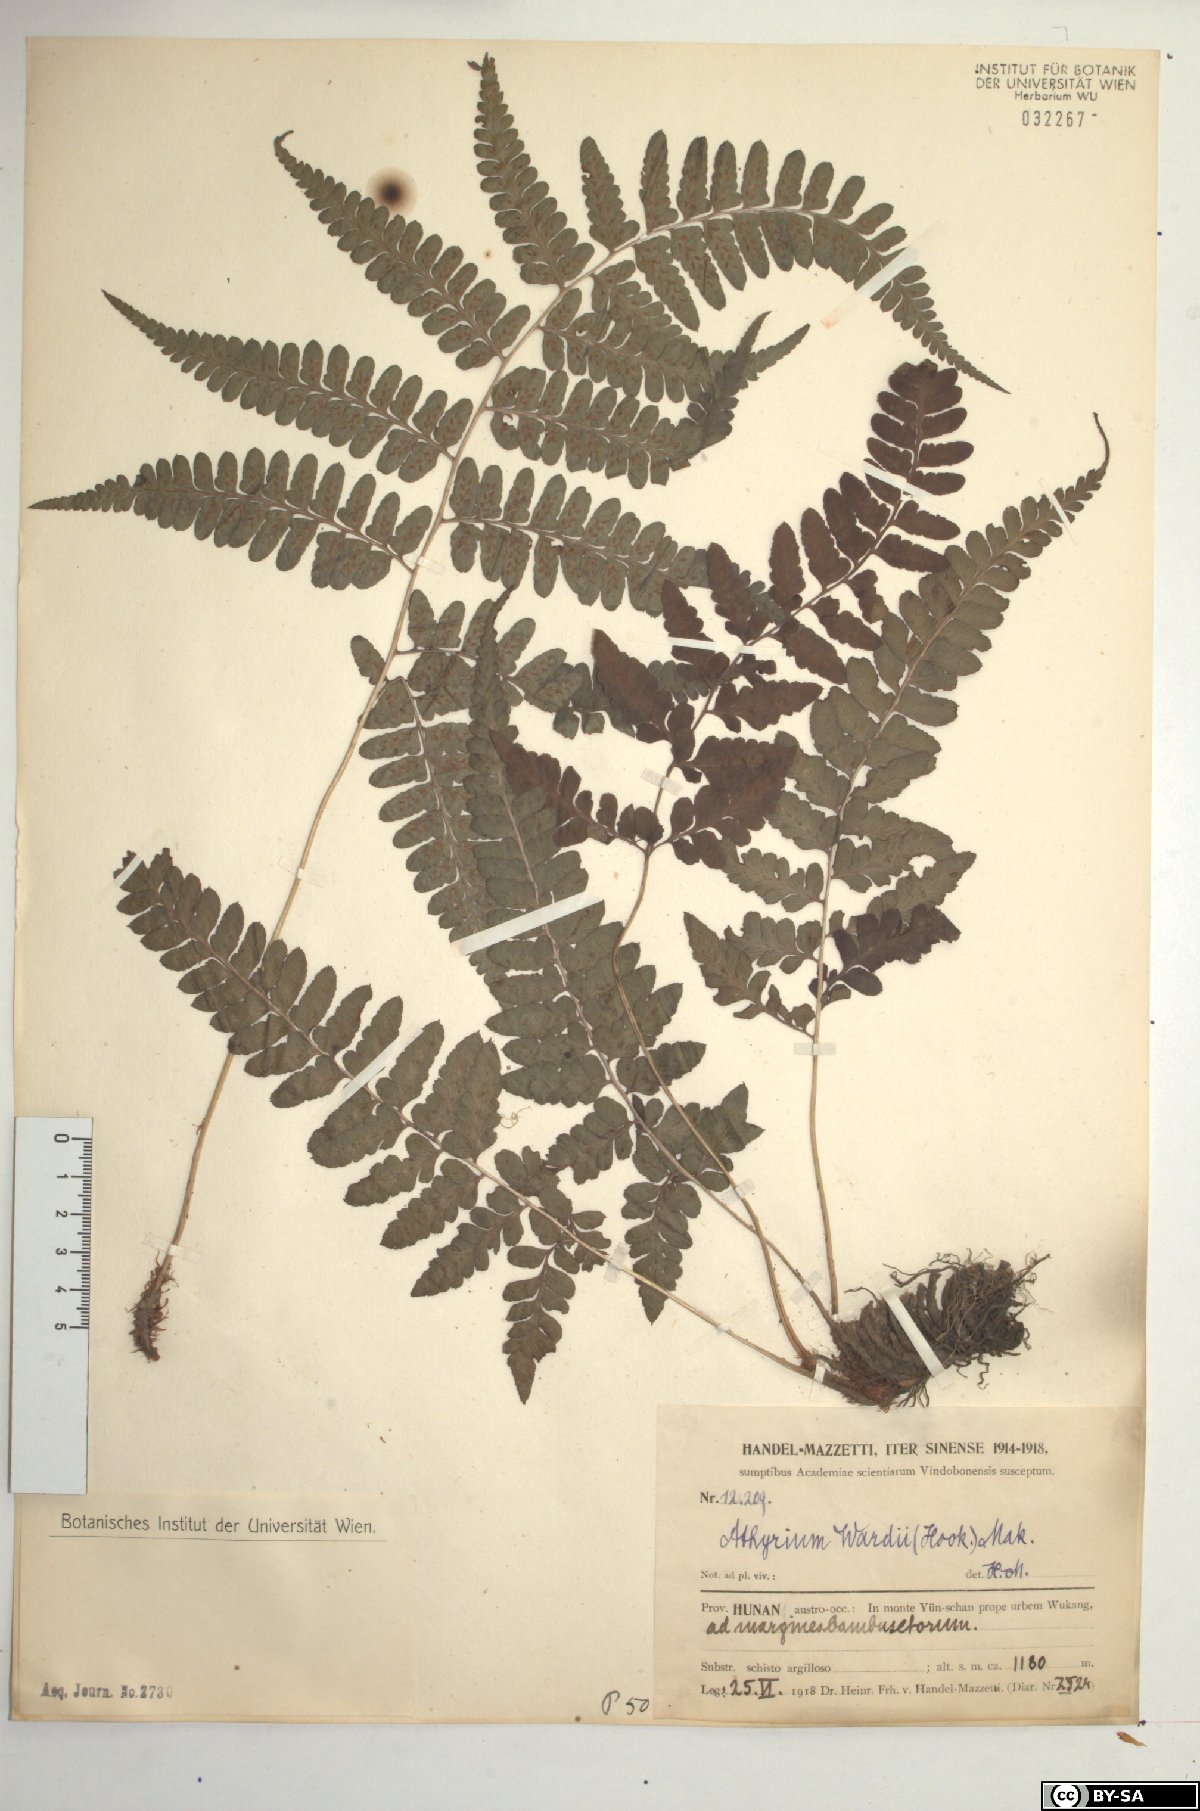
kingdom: Plantae
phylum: Tracheophyta
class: Polypodiopsida
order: Polypodiales
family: Athyriaceae
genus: Athyrium
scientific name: Athyrium wardii
